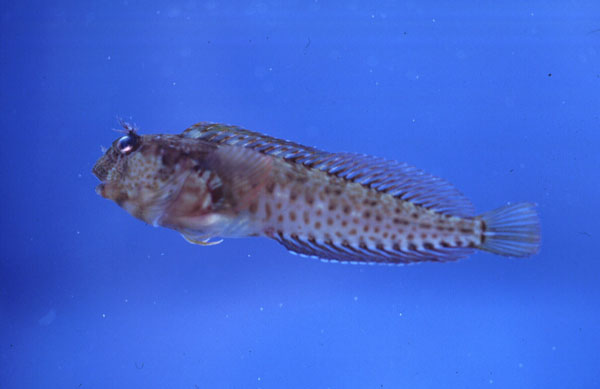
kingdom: Animalia
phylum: Chordata
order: Perciformes
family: Blenniidae
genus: Parablennius
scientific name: Parablennius pilicornis
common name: Ringneck blenny
